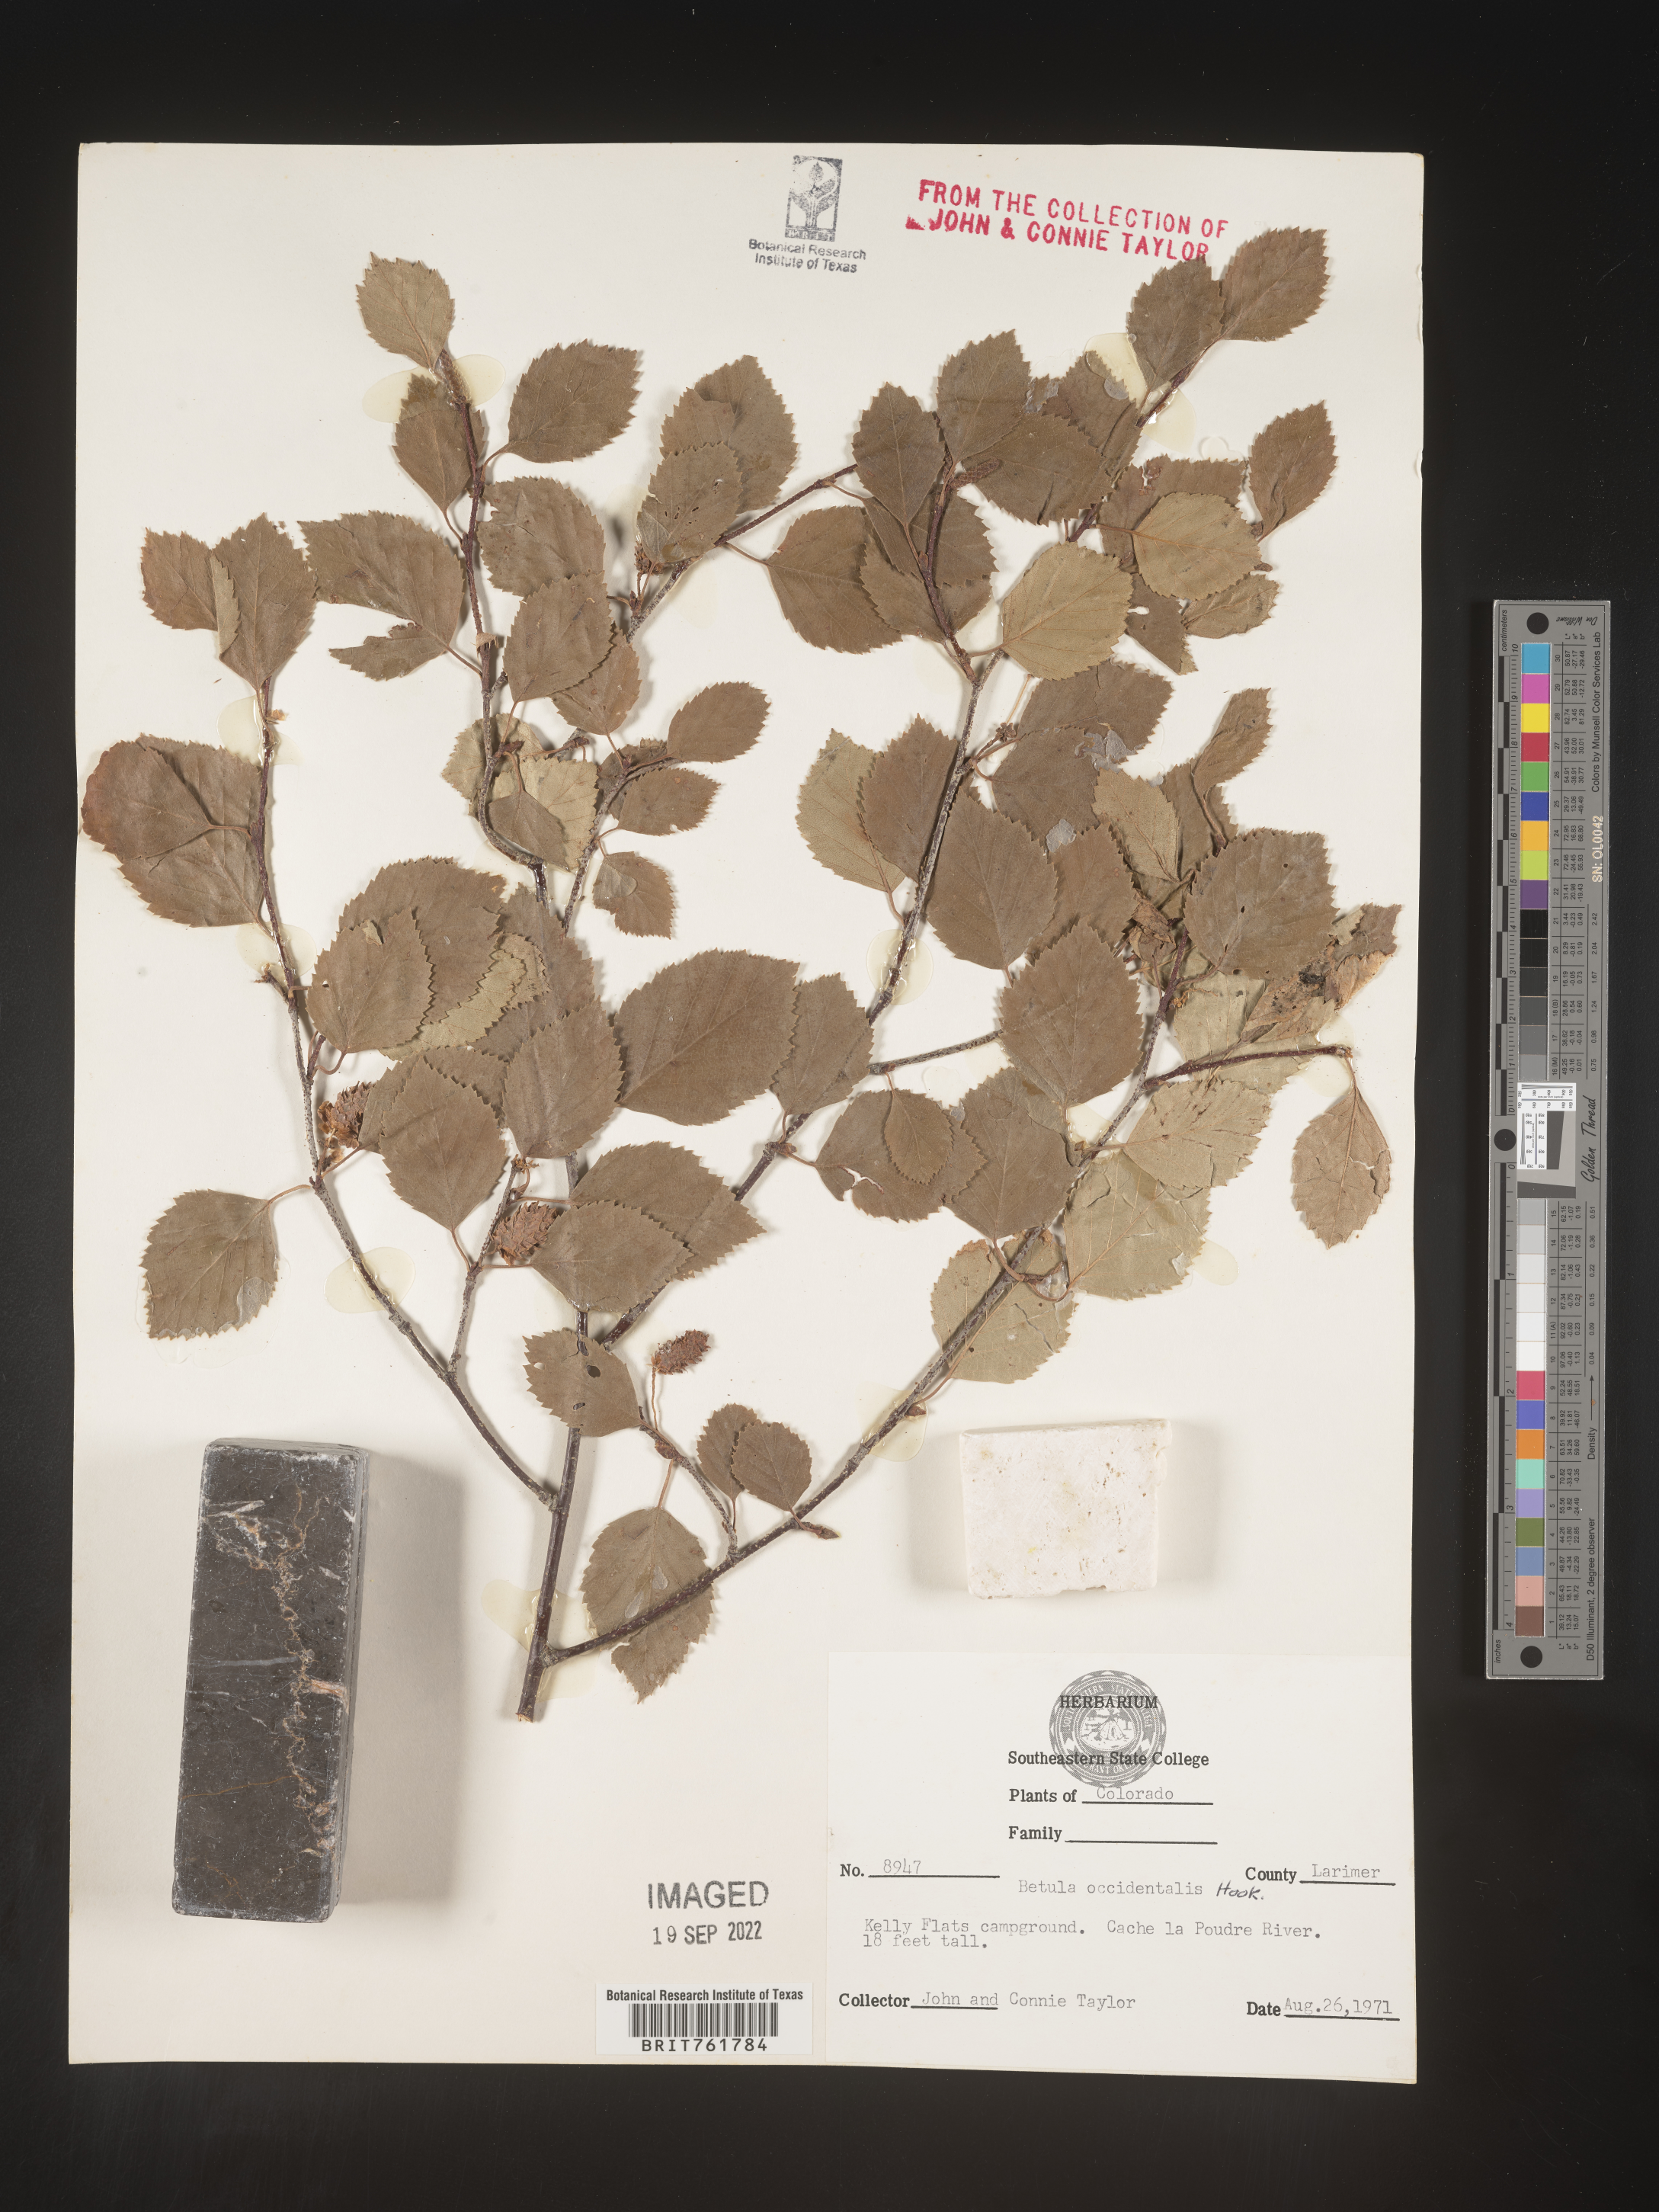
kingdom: Plantae
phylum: Tracheophyta
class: Magnoliopsida
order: Fagales
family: Betulaceae
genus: Betula
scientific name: Betula occidentalis
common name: River birch
